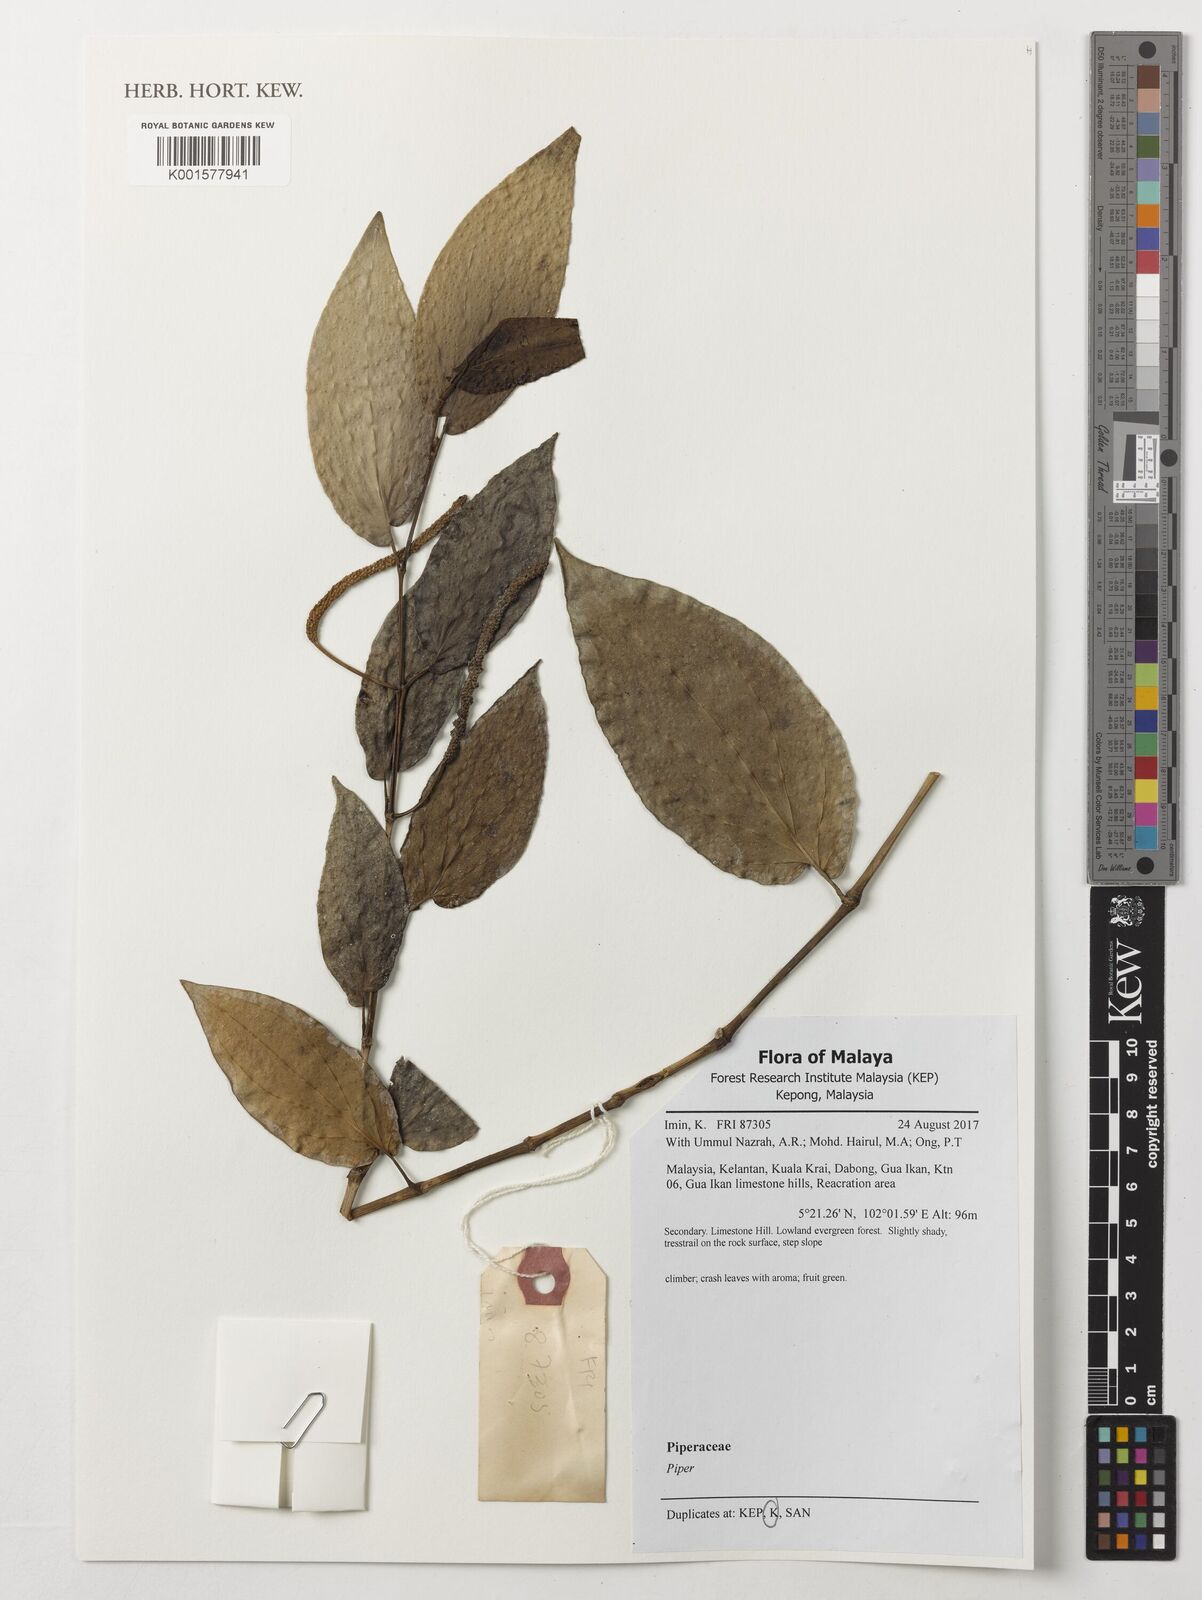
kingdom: Plantae
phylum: Tracheophyta
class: Magnoliopsida
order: Piperales
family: Piperaceae
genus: Piper
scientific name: Piper
